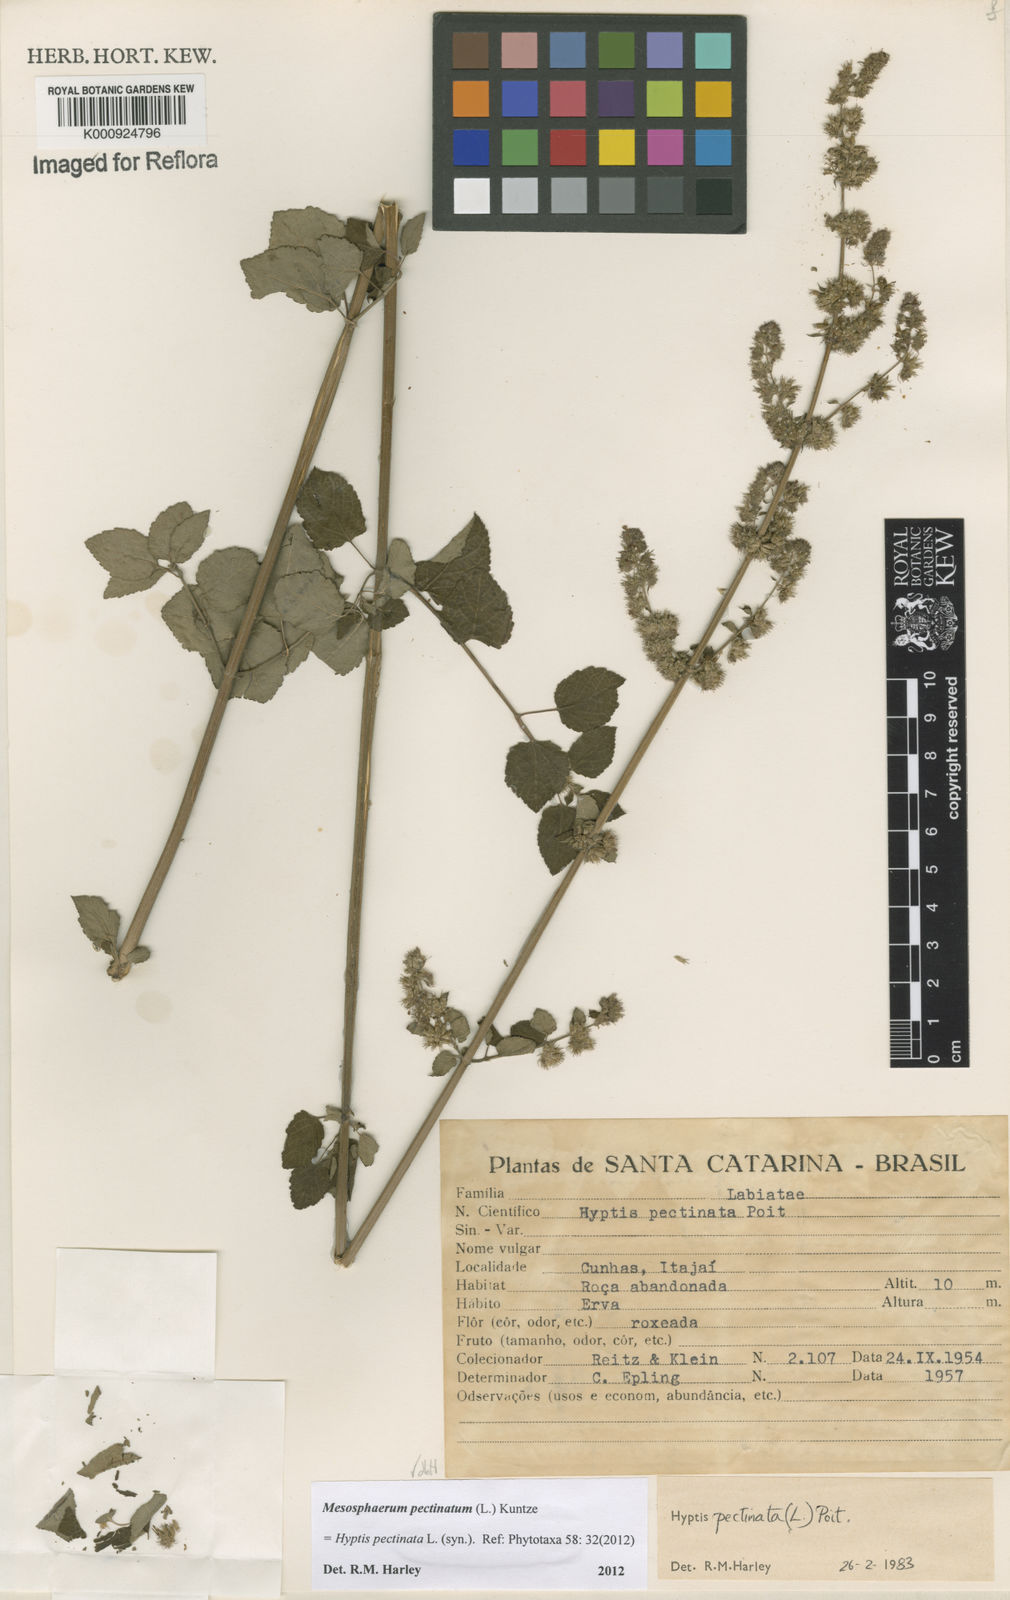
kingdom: Plantae
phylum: Tracheophyta
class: Magnoliopsida
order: Lamiales
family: Lamiaceae
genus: Mesosphaerum
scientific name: Mesosphaerum pectinatum
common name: Comb hyptis
